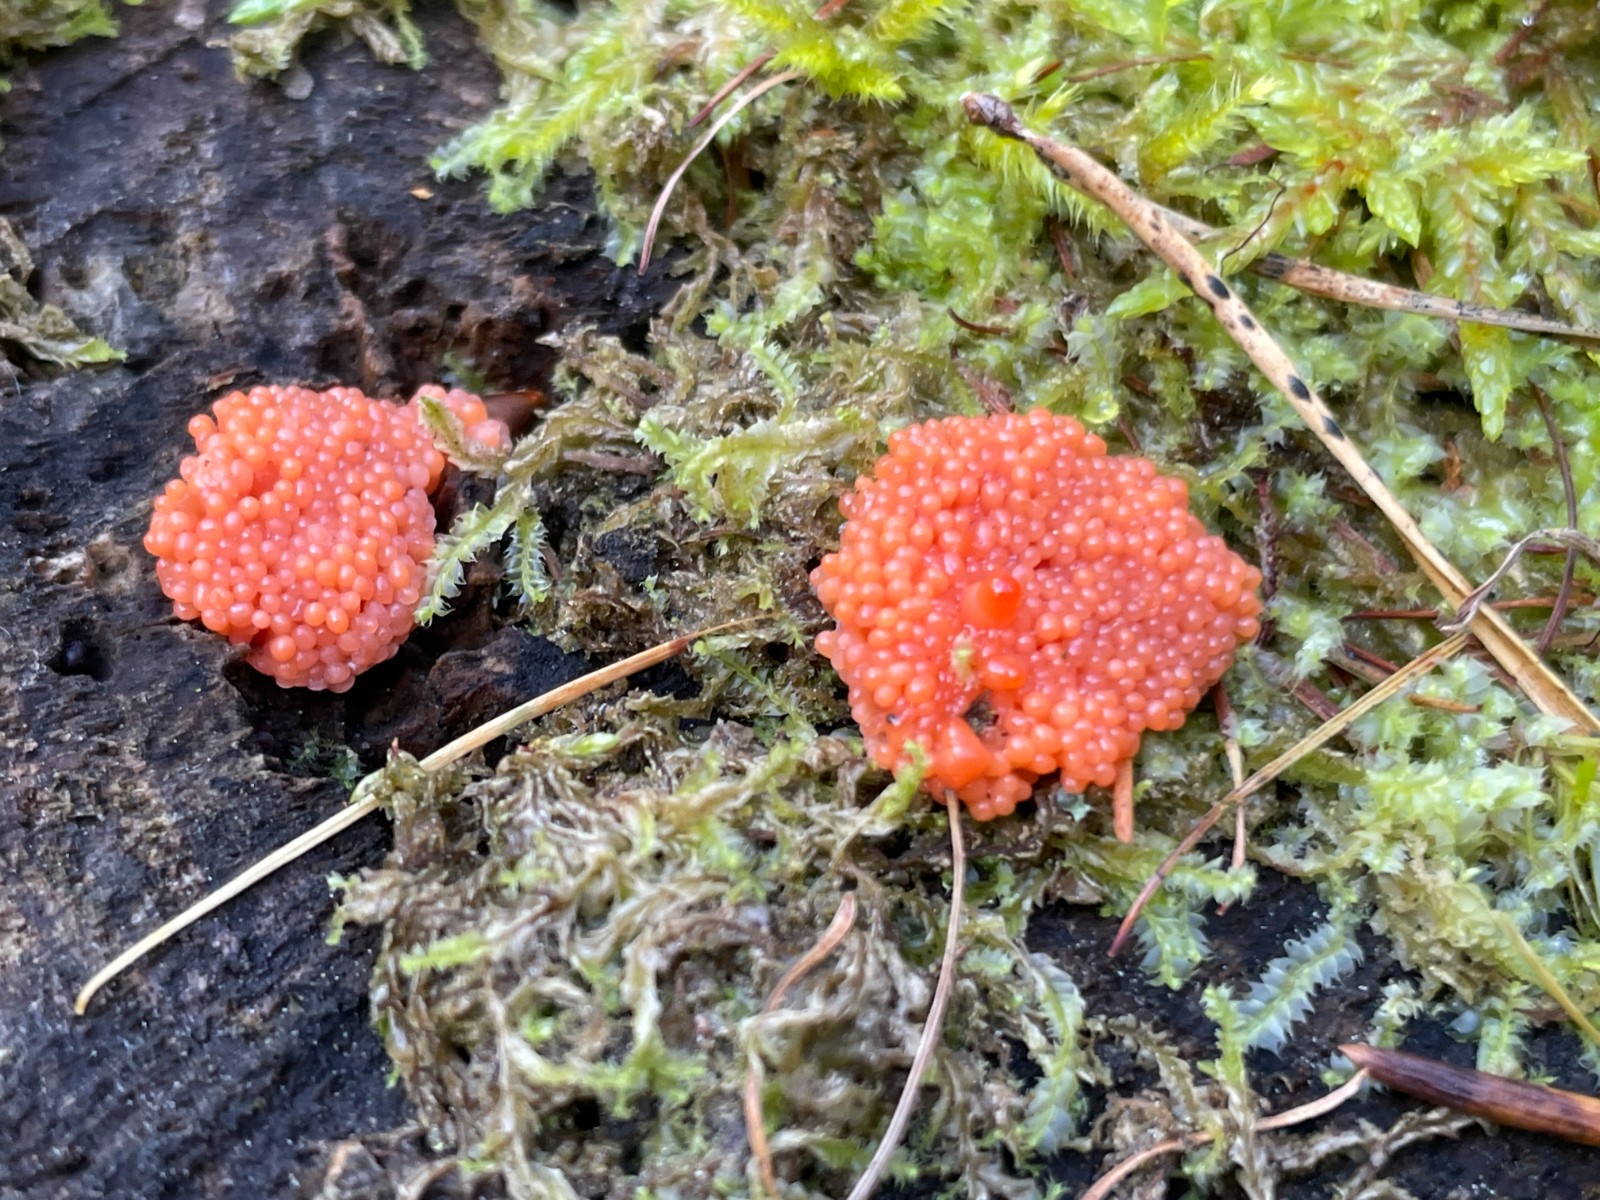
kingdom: Protozoa
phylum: Mycetozoa
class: Myxomycetes
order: Cribrariales
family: Tubiferaceae
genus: Tubifera
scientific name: Tubifera ferruginosa
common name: kanel-støvrør
